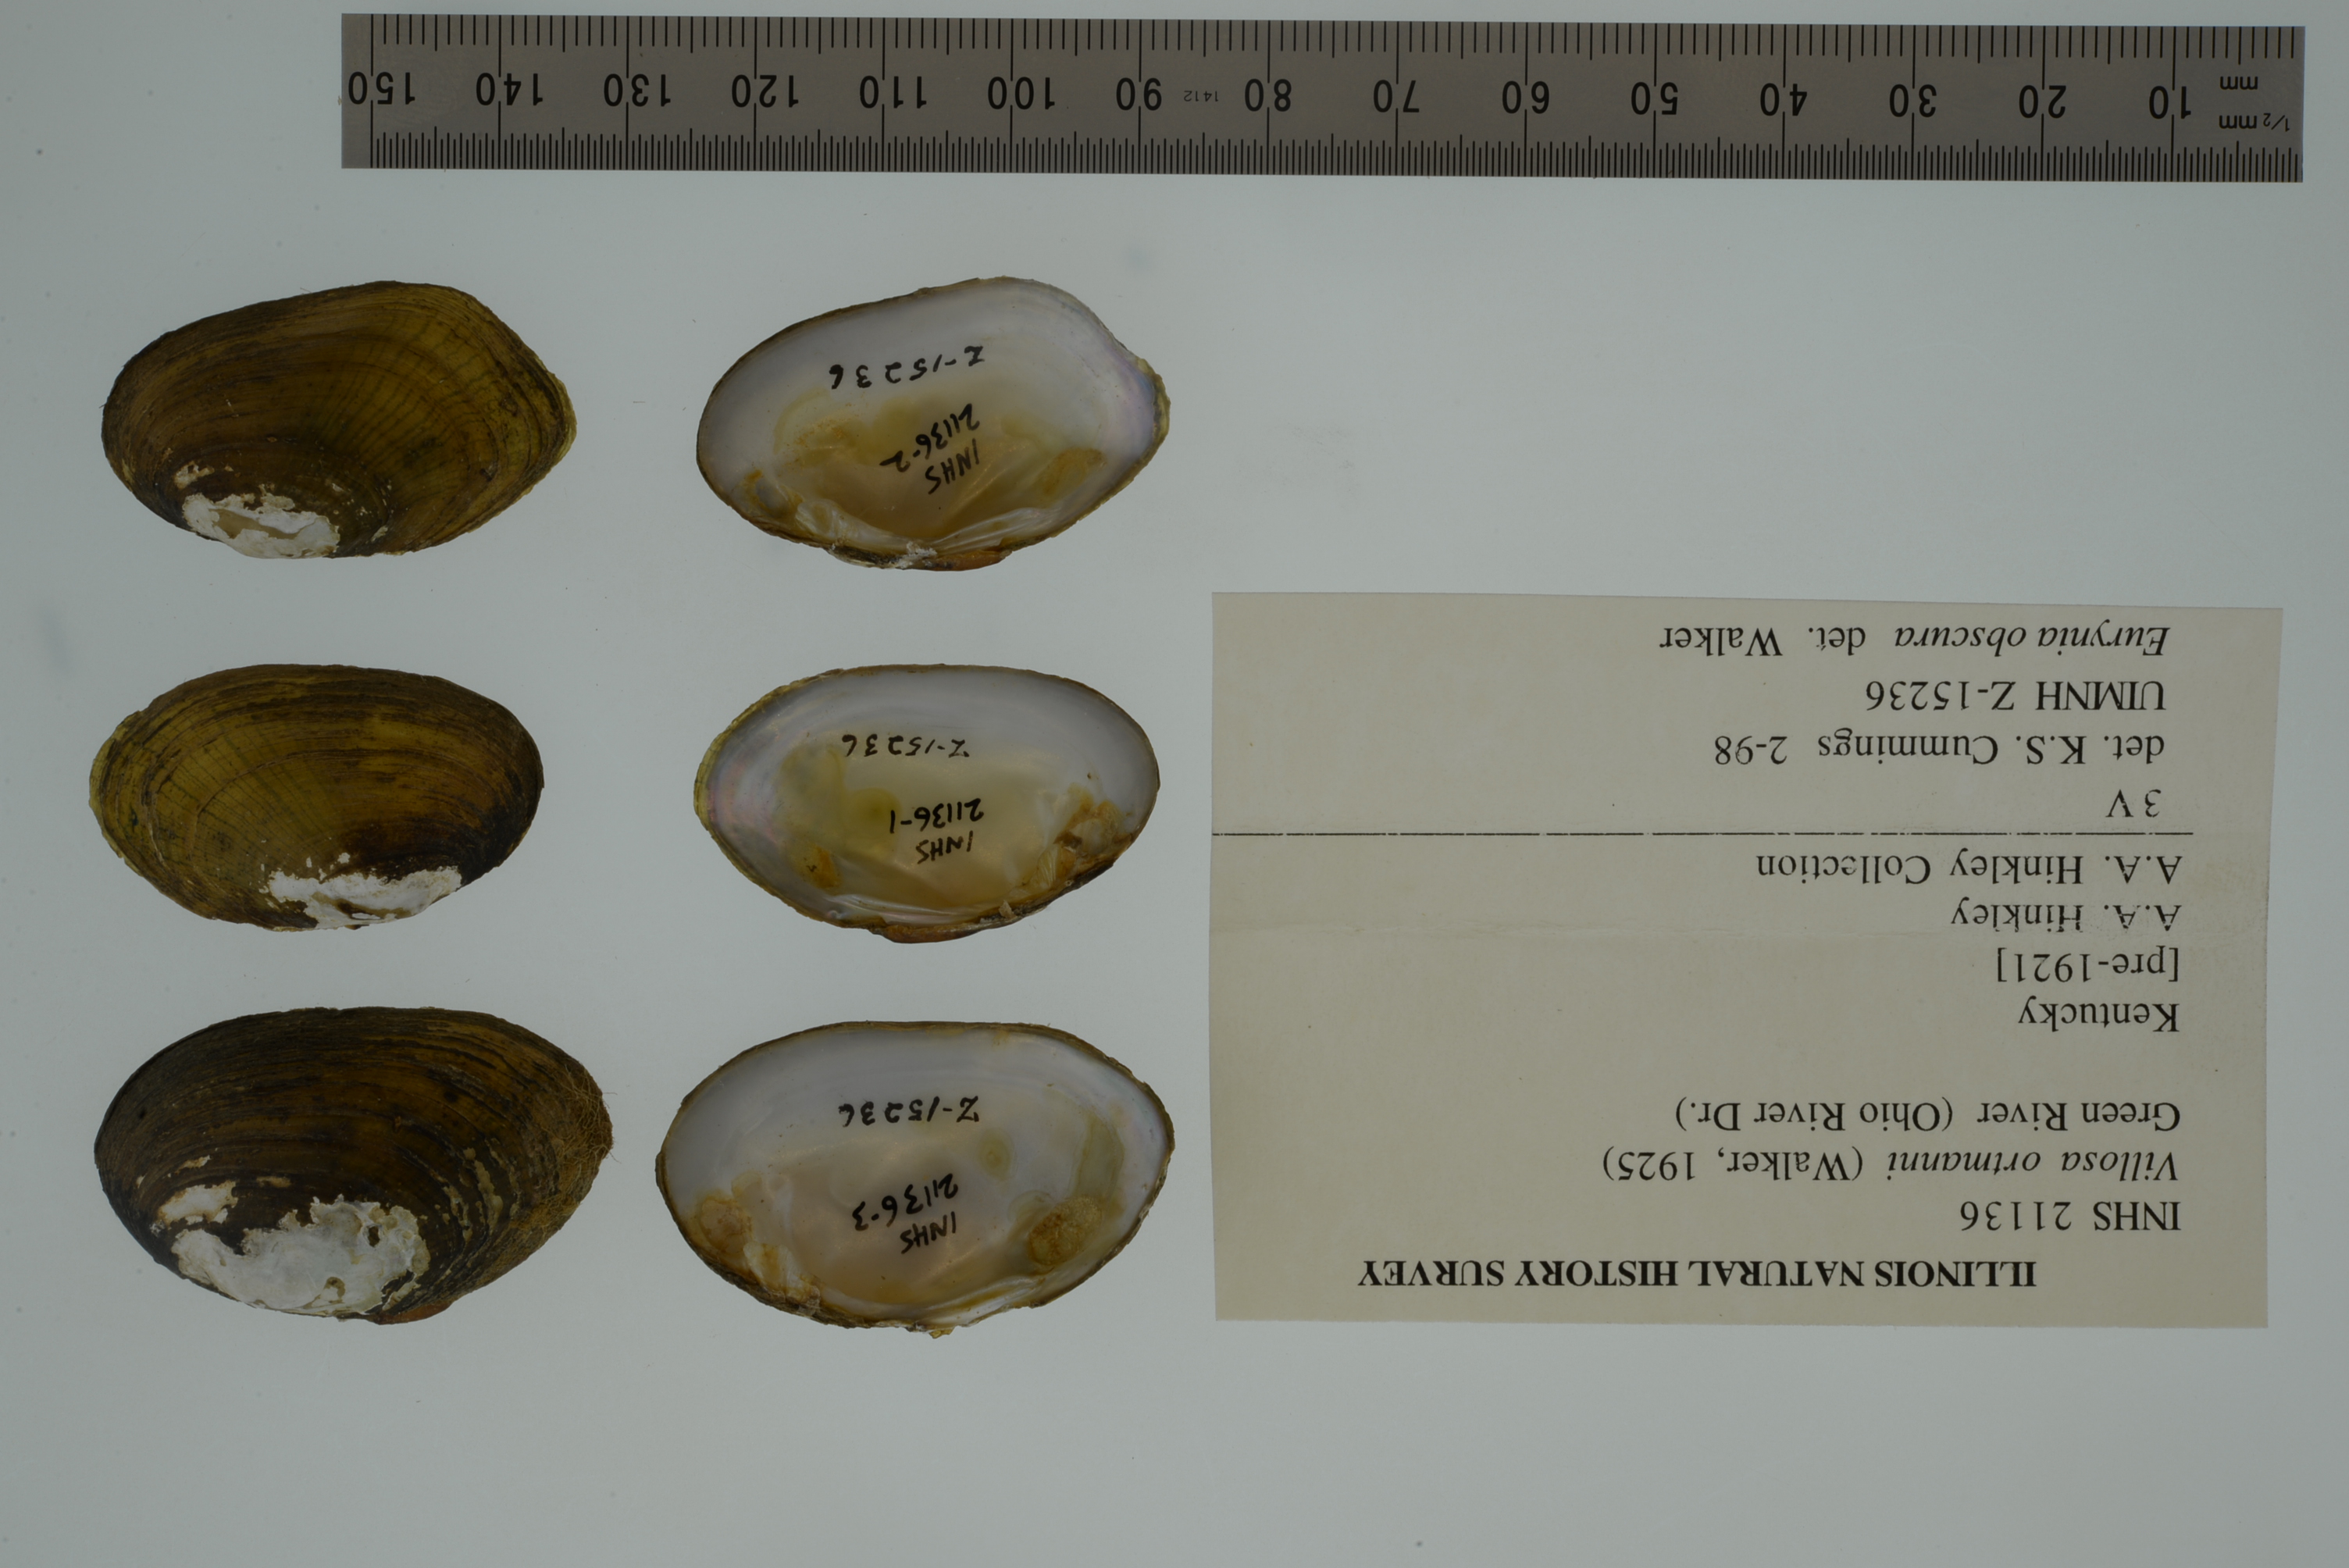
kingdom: Animalia
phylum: Mollusca
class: Bivalvia
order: Unionida
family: Unionidae
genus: Leaunio
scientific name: Leaunio ortmanni
